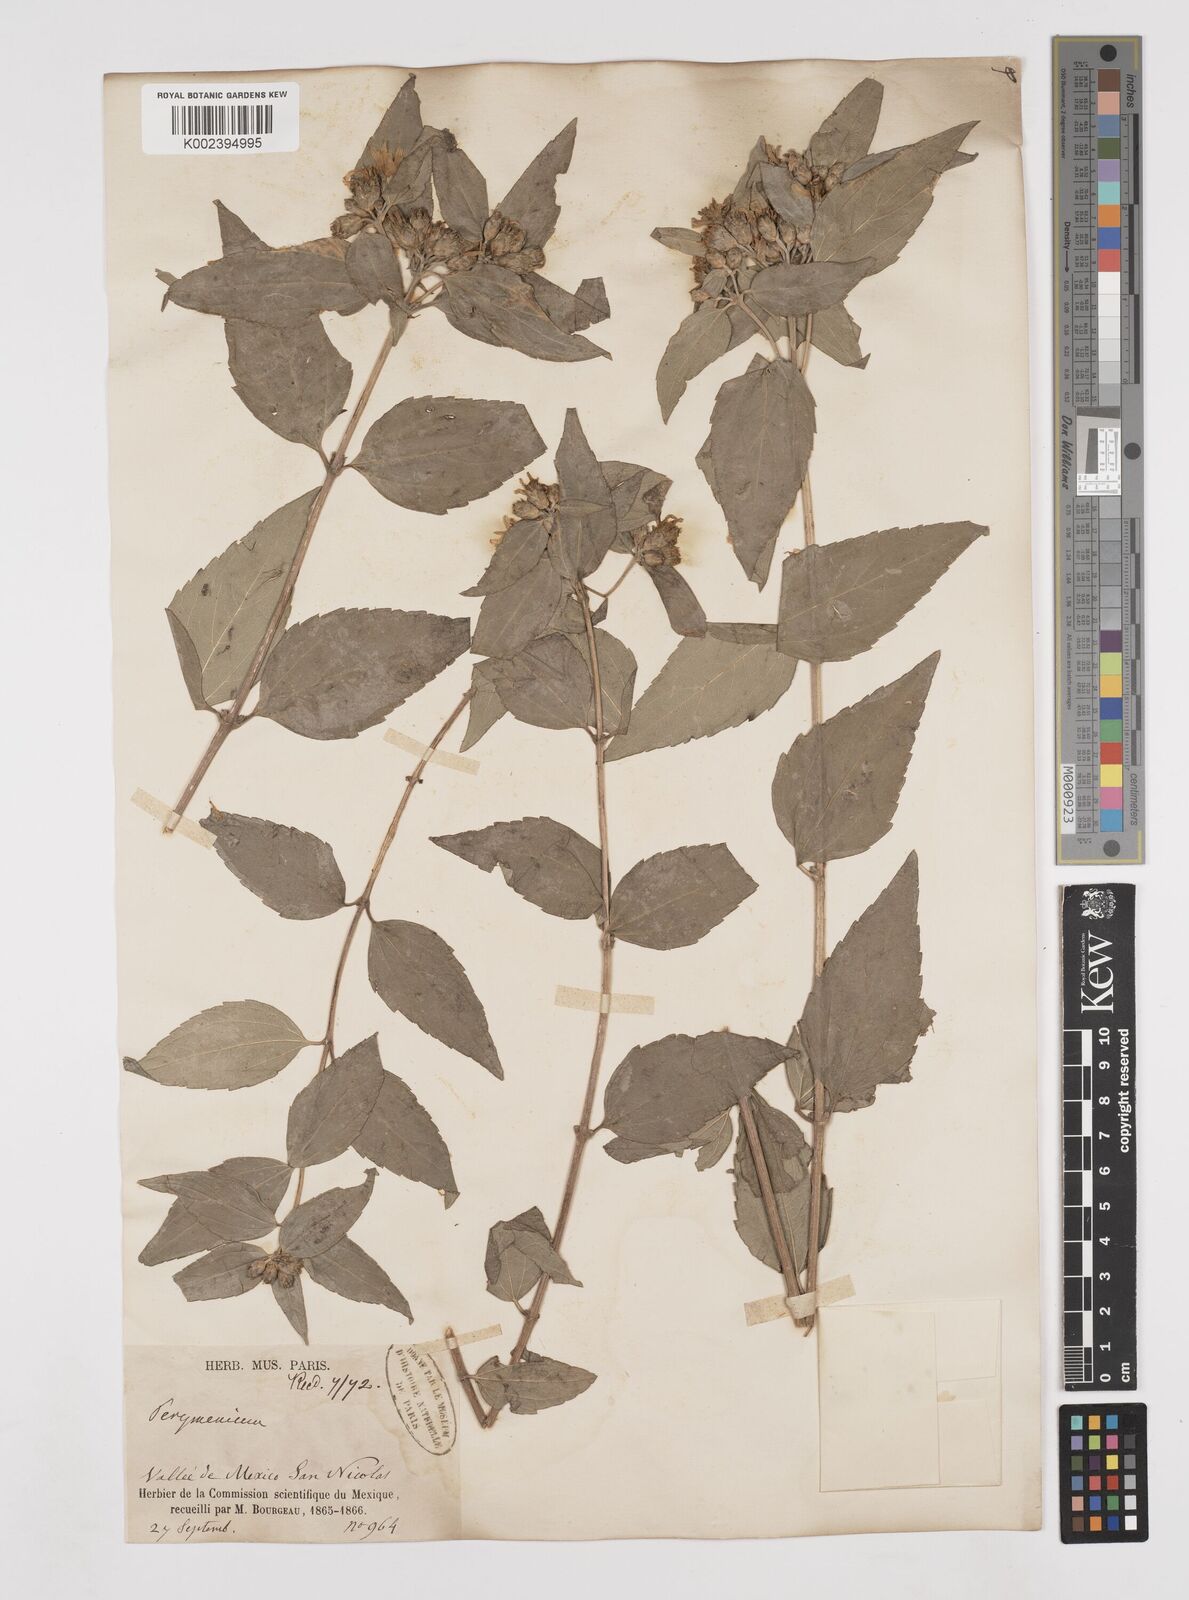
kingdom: Plantae
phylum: Tracheophyta
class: Magnoliopsida
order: Asterales
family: Asteraceae
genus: Perymenium
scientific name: Perymenium berlandieri
